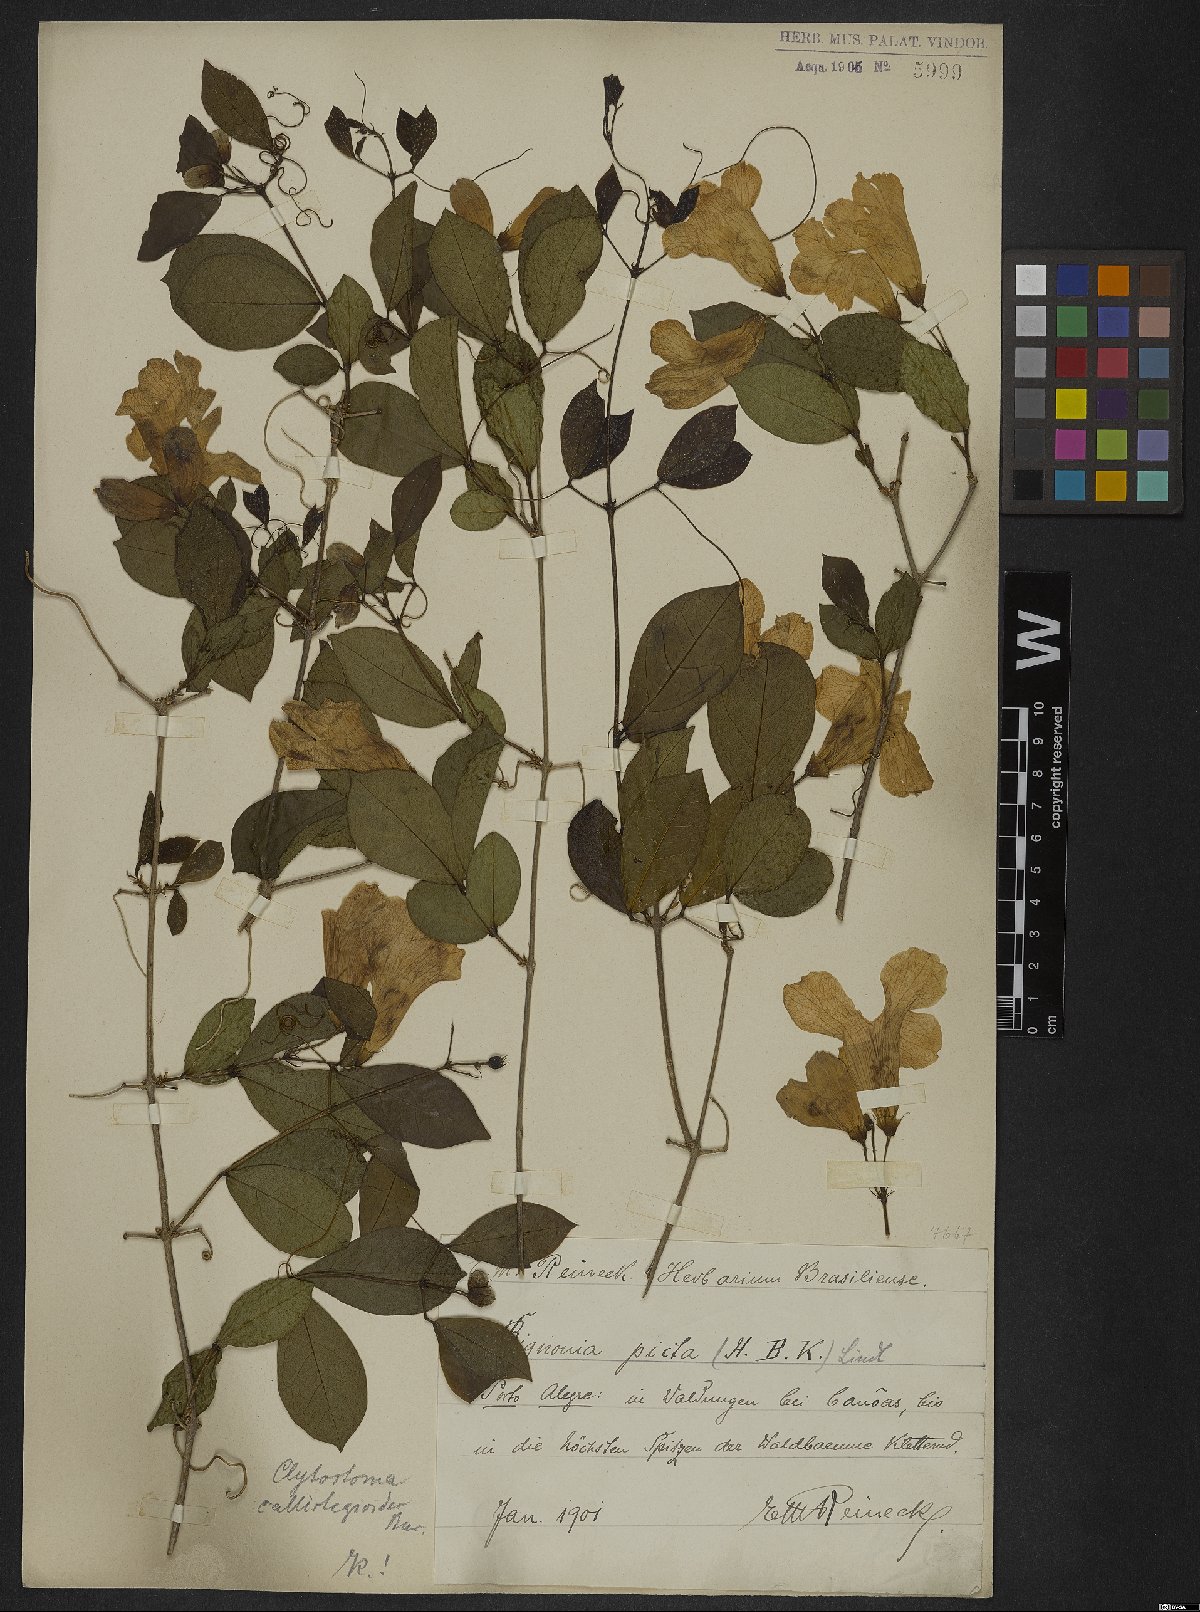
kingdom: Plantae
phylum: Tracheophyta
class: Magnoliopsida
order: Lamiales
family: Bignoniaceae
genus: Bignonia
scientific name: Bignonia callistegioides
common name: Argentine trumpetvine
